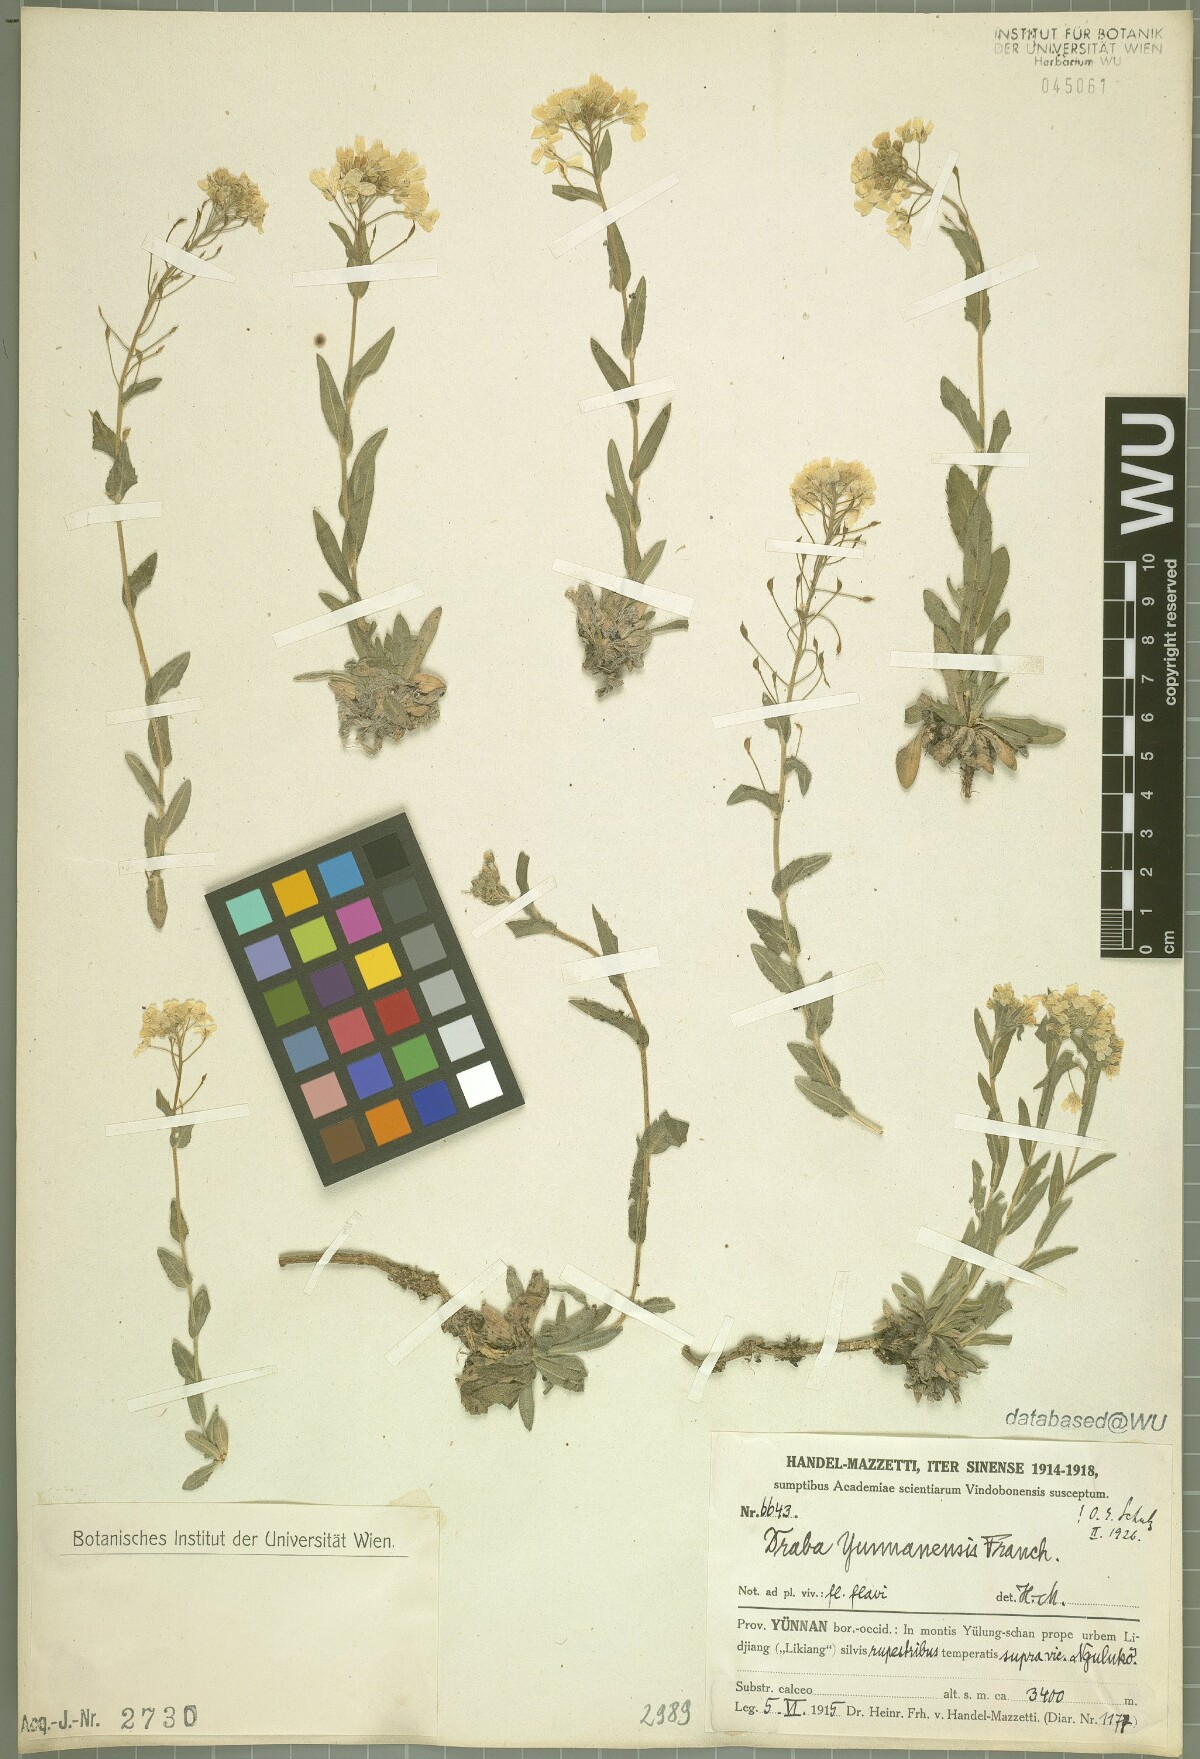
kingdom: Plantae
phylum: Tracheophyta
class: Magnoliopsida
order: Brassicales
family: Brassicaceae
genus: Draba
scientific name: Draba yunnanensis
